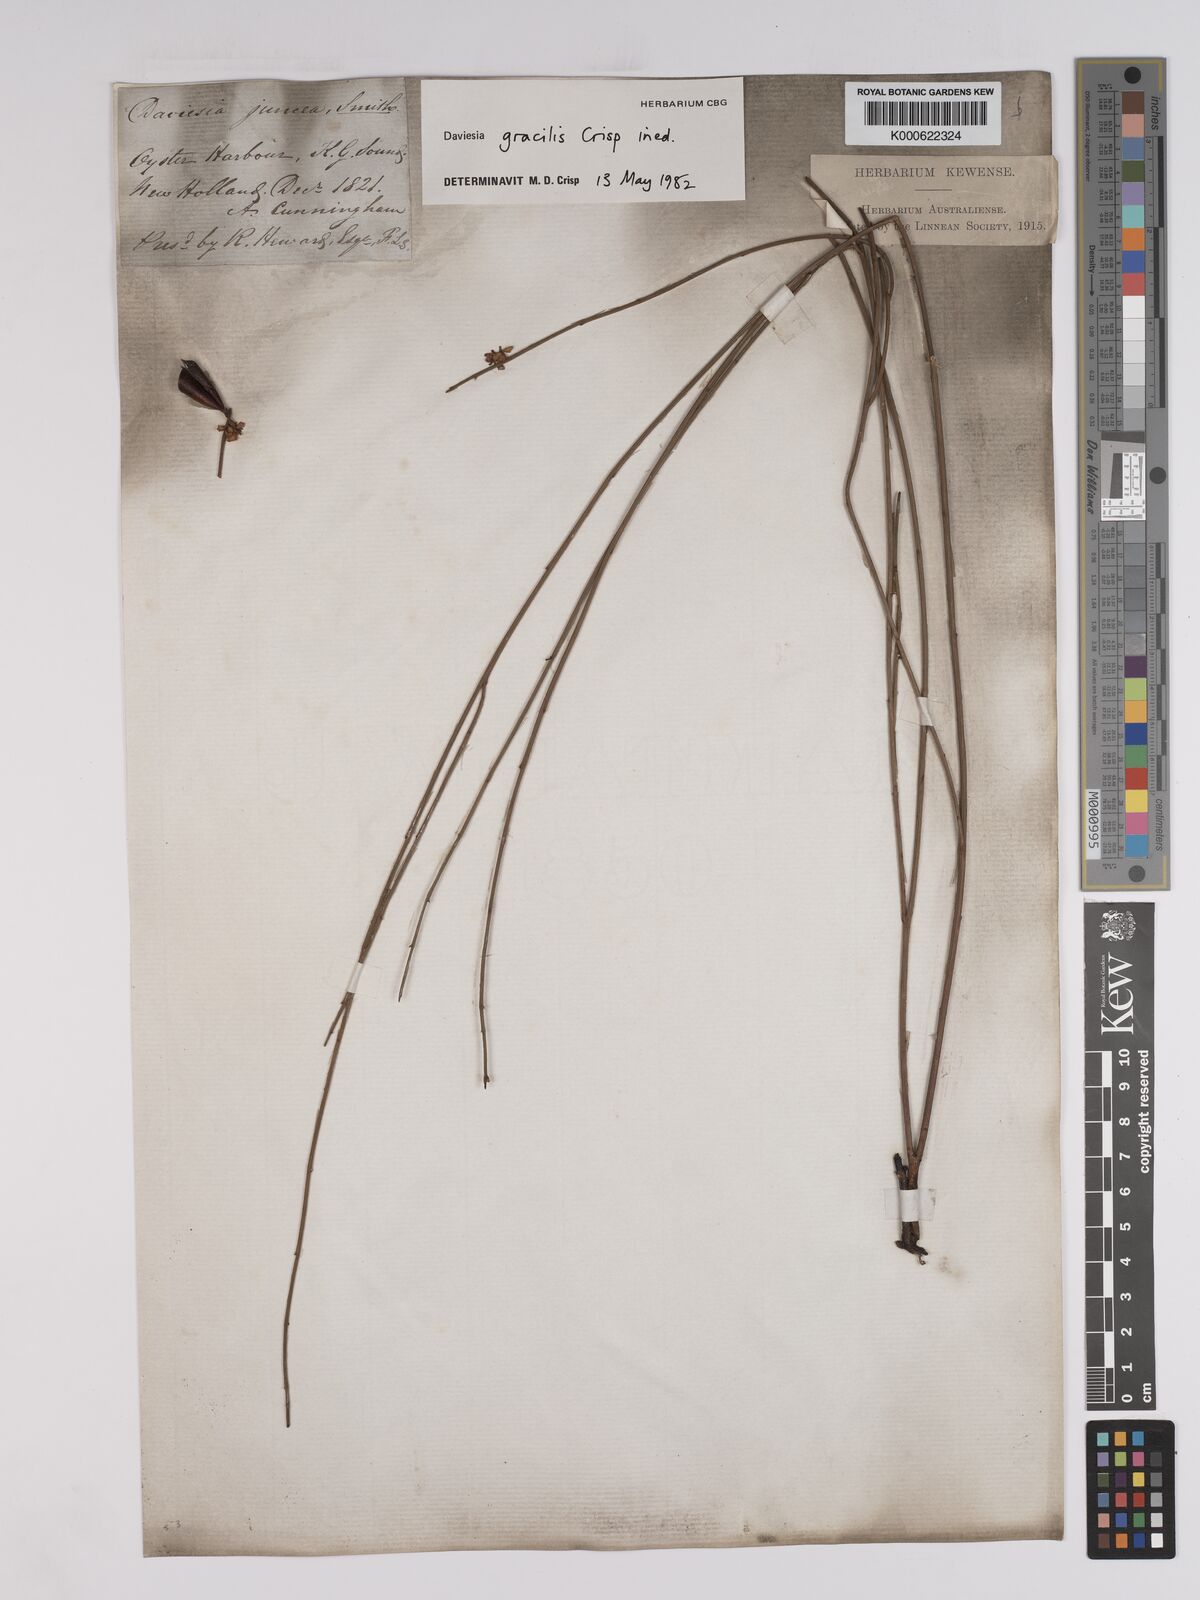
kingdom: Plantae
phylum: Tracheophyta
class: Magnoliopsida
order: Fabales
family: Fabaceae
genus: Daviesia
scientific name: Daviesia gracilis
